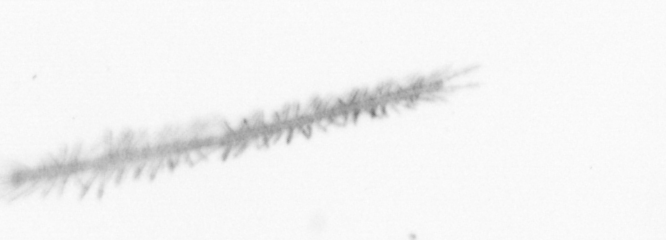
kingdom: Chromista
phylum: Ochrophyta
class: Bacillariophyceae
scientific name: Bacillariophyceae
